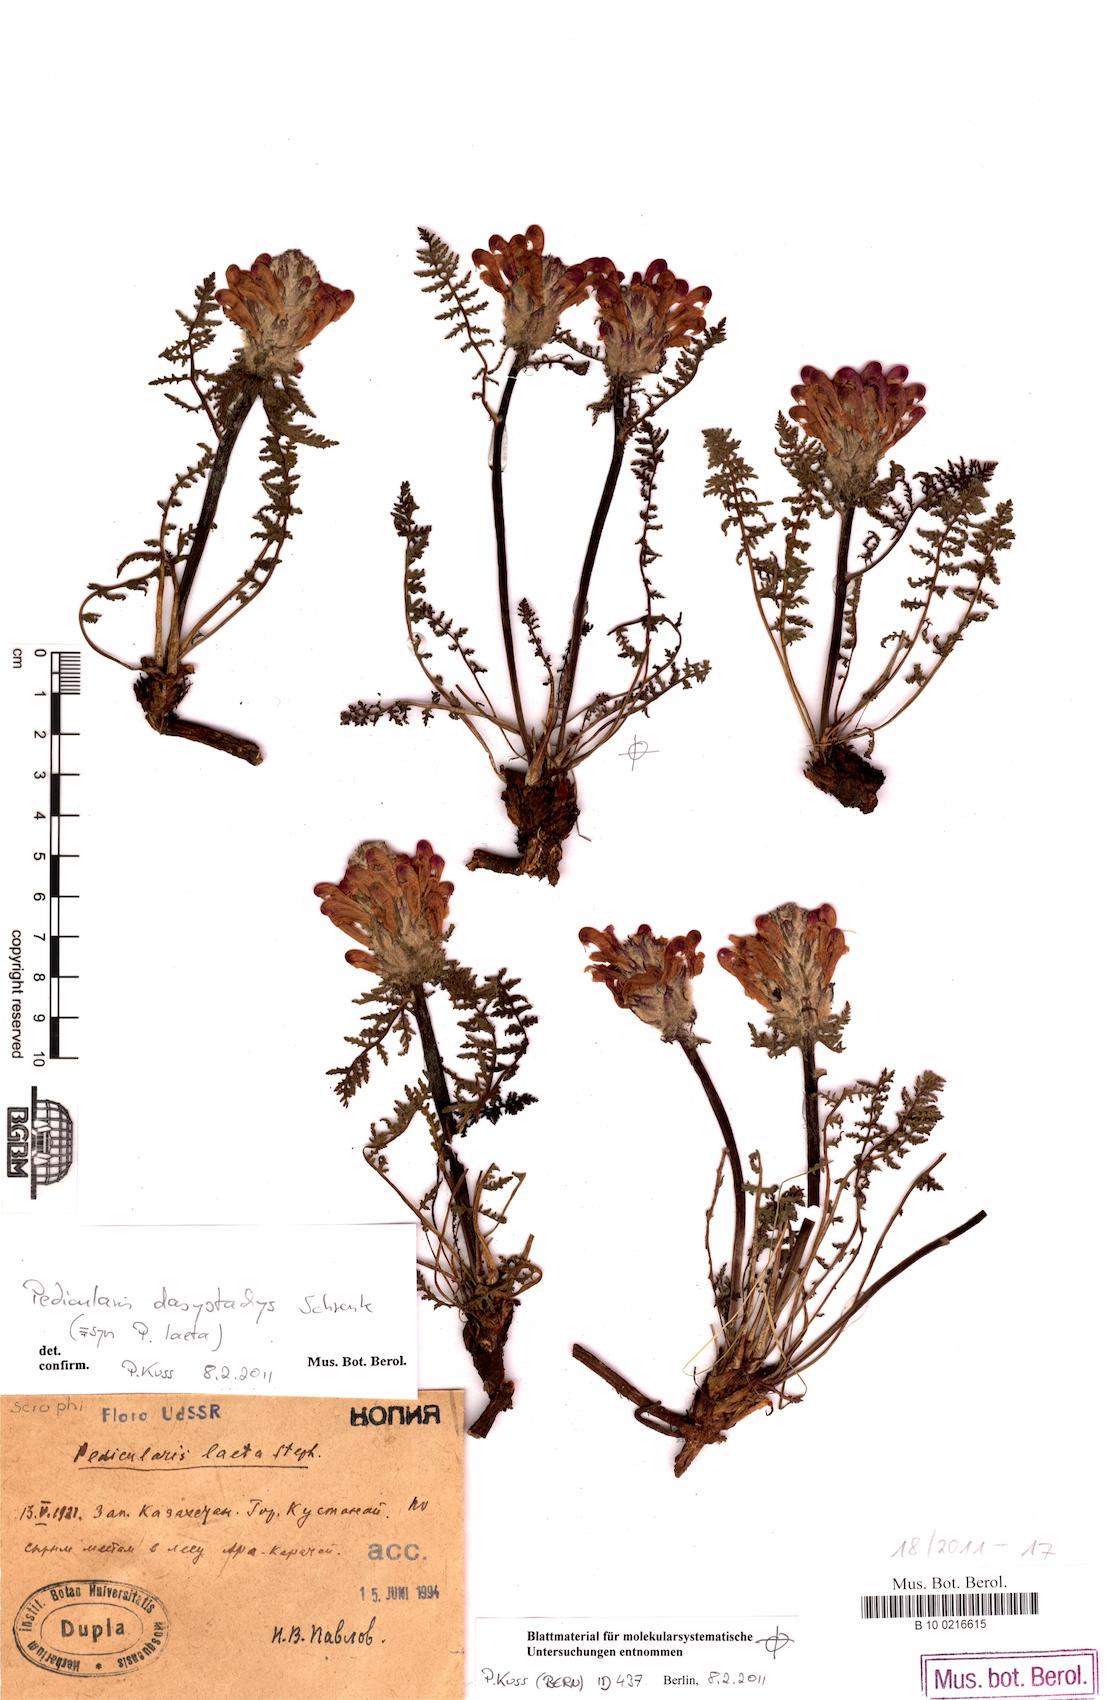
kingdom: Plantae
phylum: Tracheophyta
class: Magnoliopsida
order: Lamiales
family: Orobanchaceae
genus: Pedicularis
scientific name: Pedicularis dasystachys
